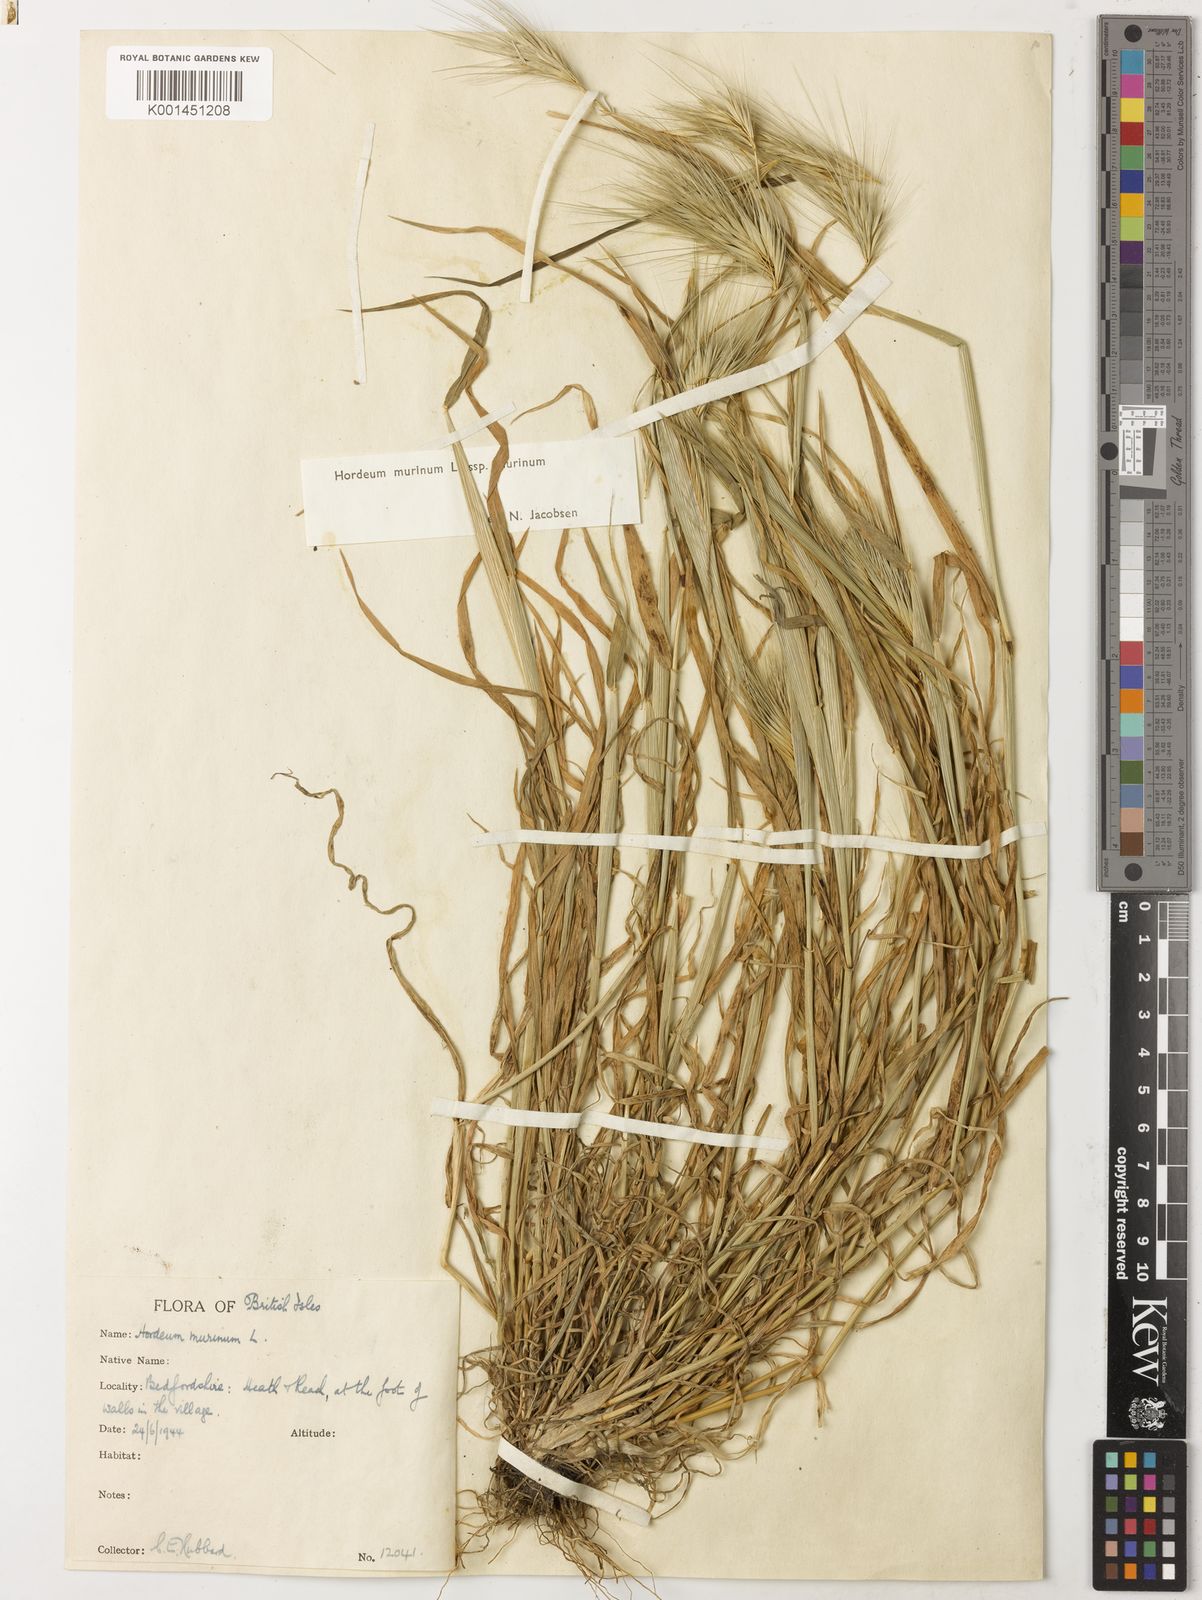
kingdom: Plantae
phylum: Tracheophyta
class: Liliopsida
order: Poales
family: Poaceae
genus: Hordeum
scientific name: Hordeum murinum
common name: Wall barley
